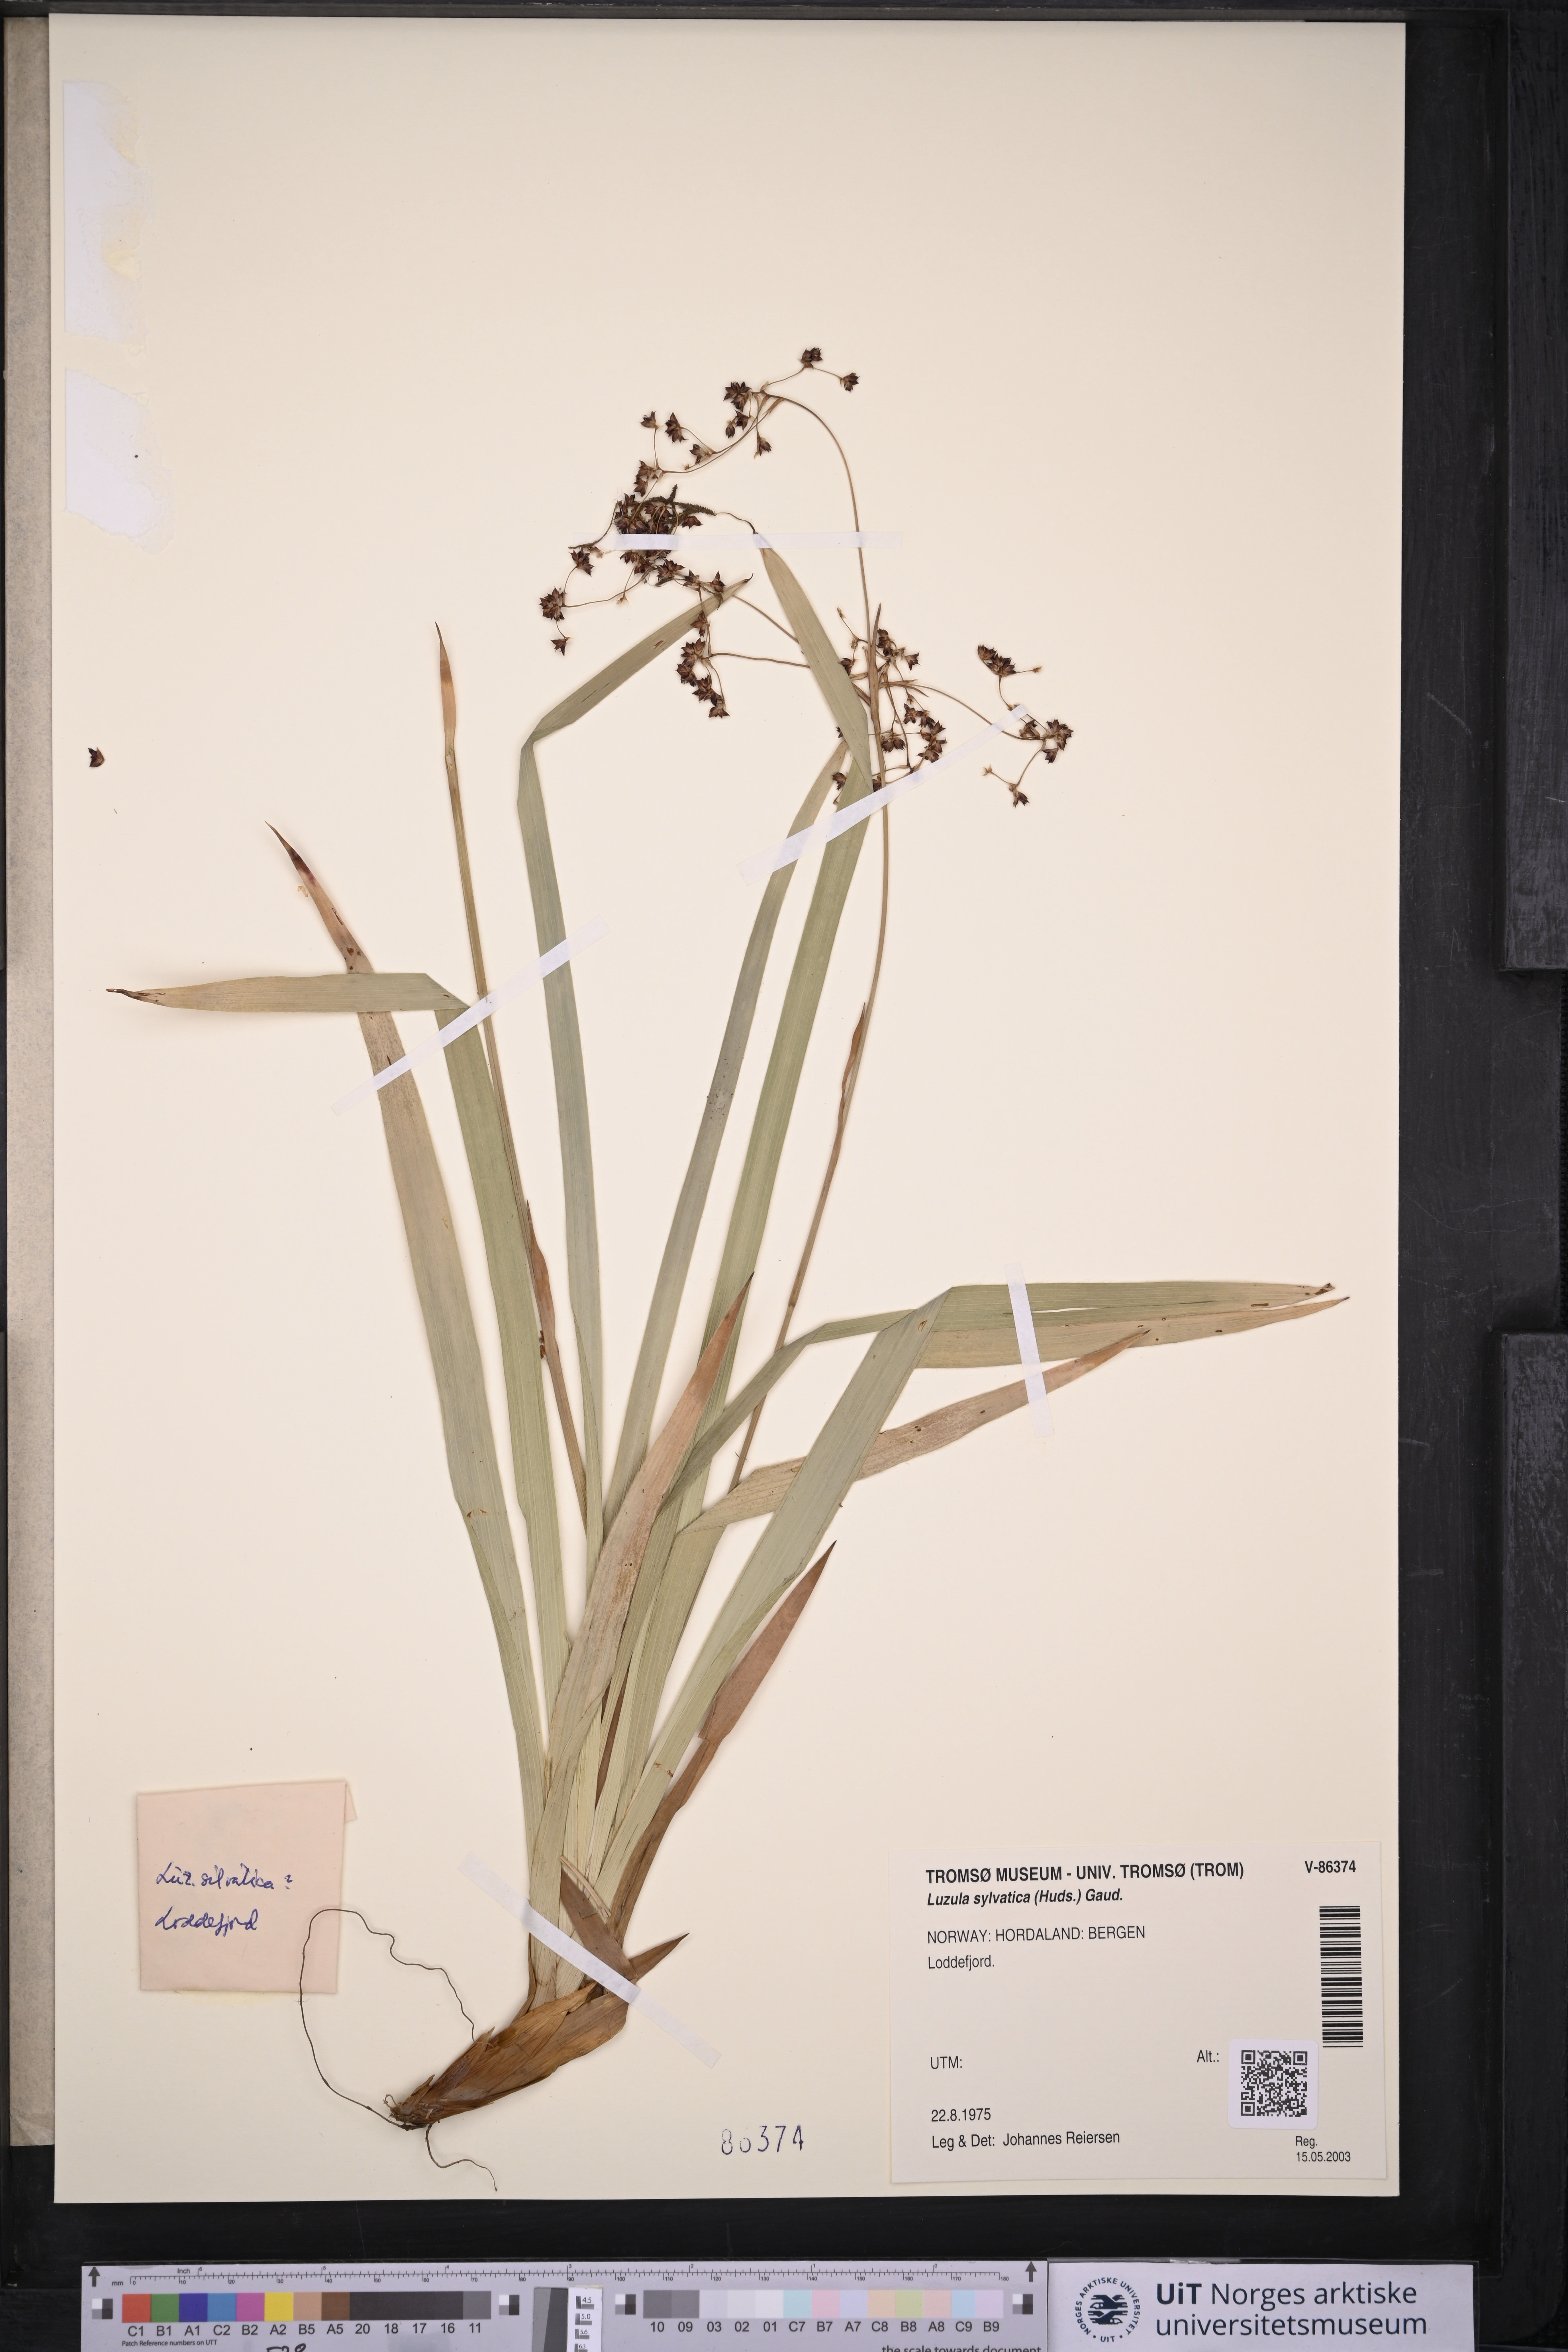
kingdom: Plantae
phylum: Tracheophyta
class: Liliopsida
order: Poales
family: Juncaceae
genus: Luzula
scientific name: Luzula sylvatica
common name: Great wood-rush
